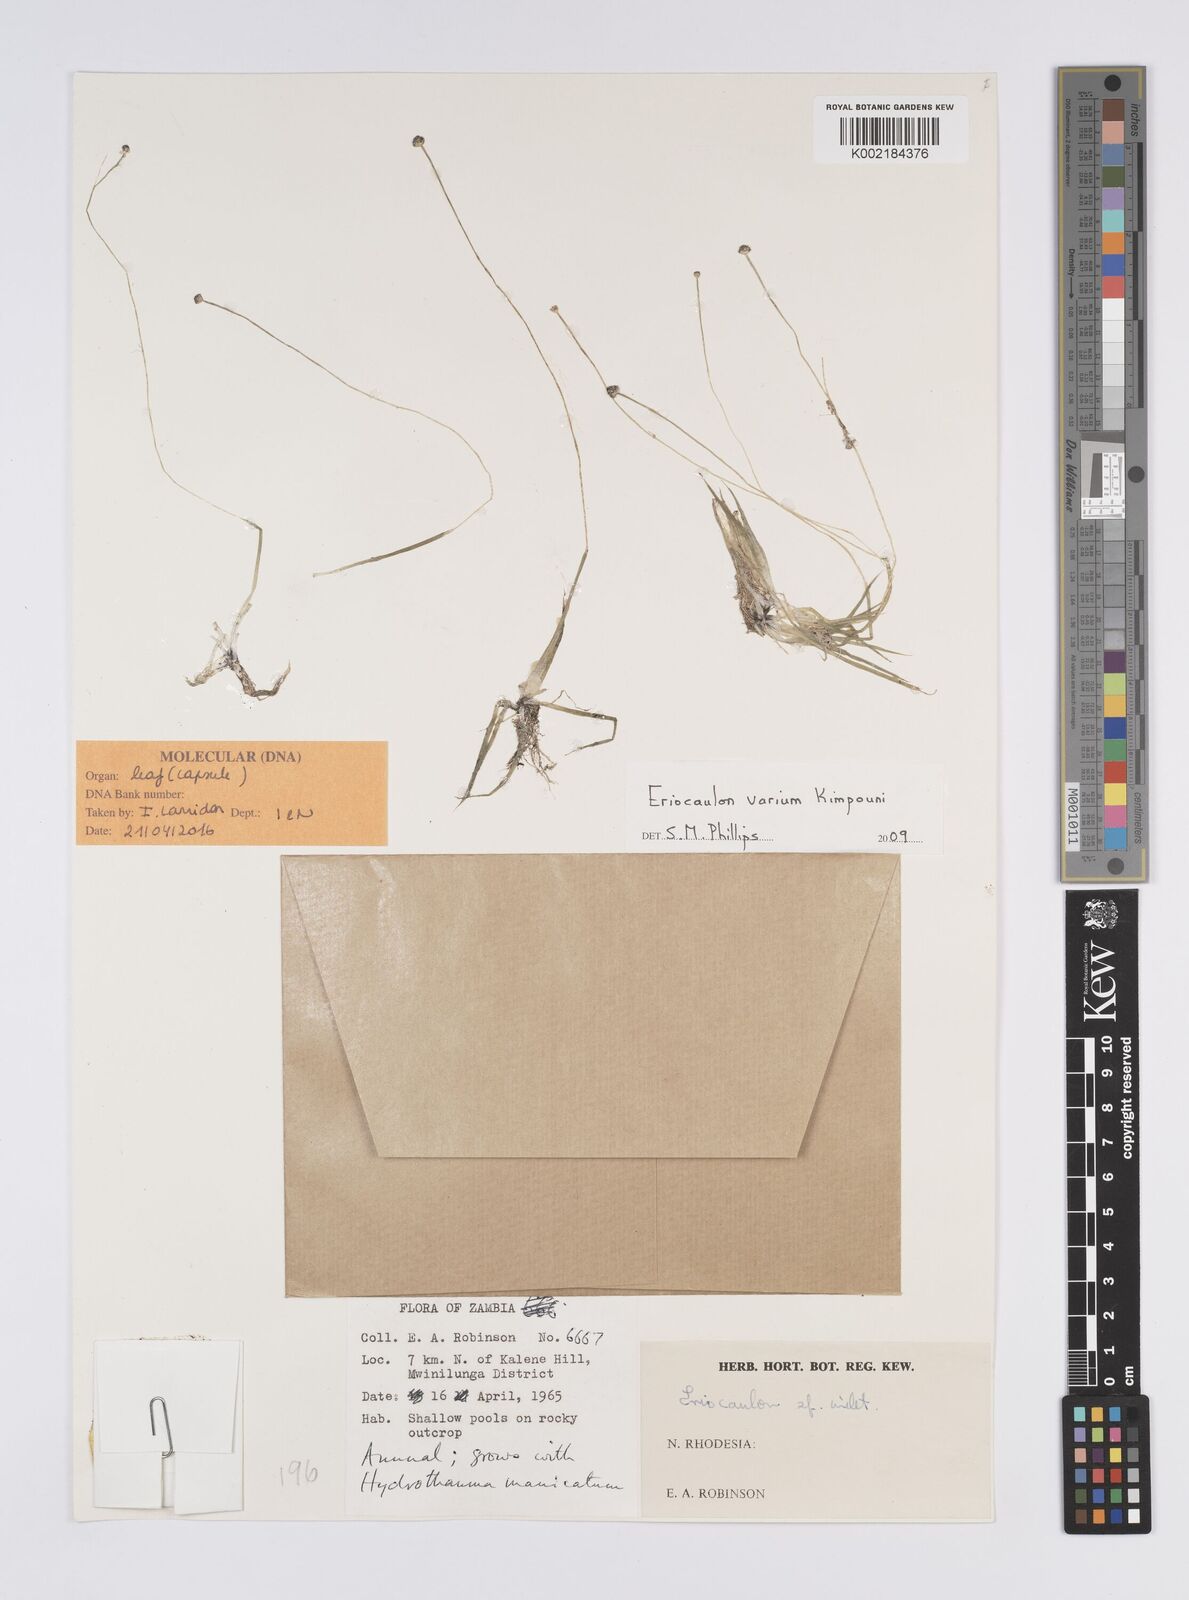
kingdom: Plantae
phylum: Tracheophyta
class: Liliopsida
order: Poales
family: Eriocaulaceae
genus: Eriocaulon
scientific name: Eriocaulon varium
